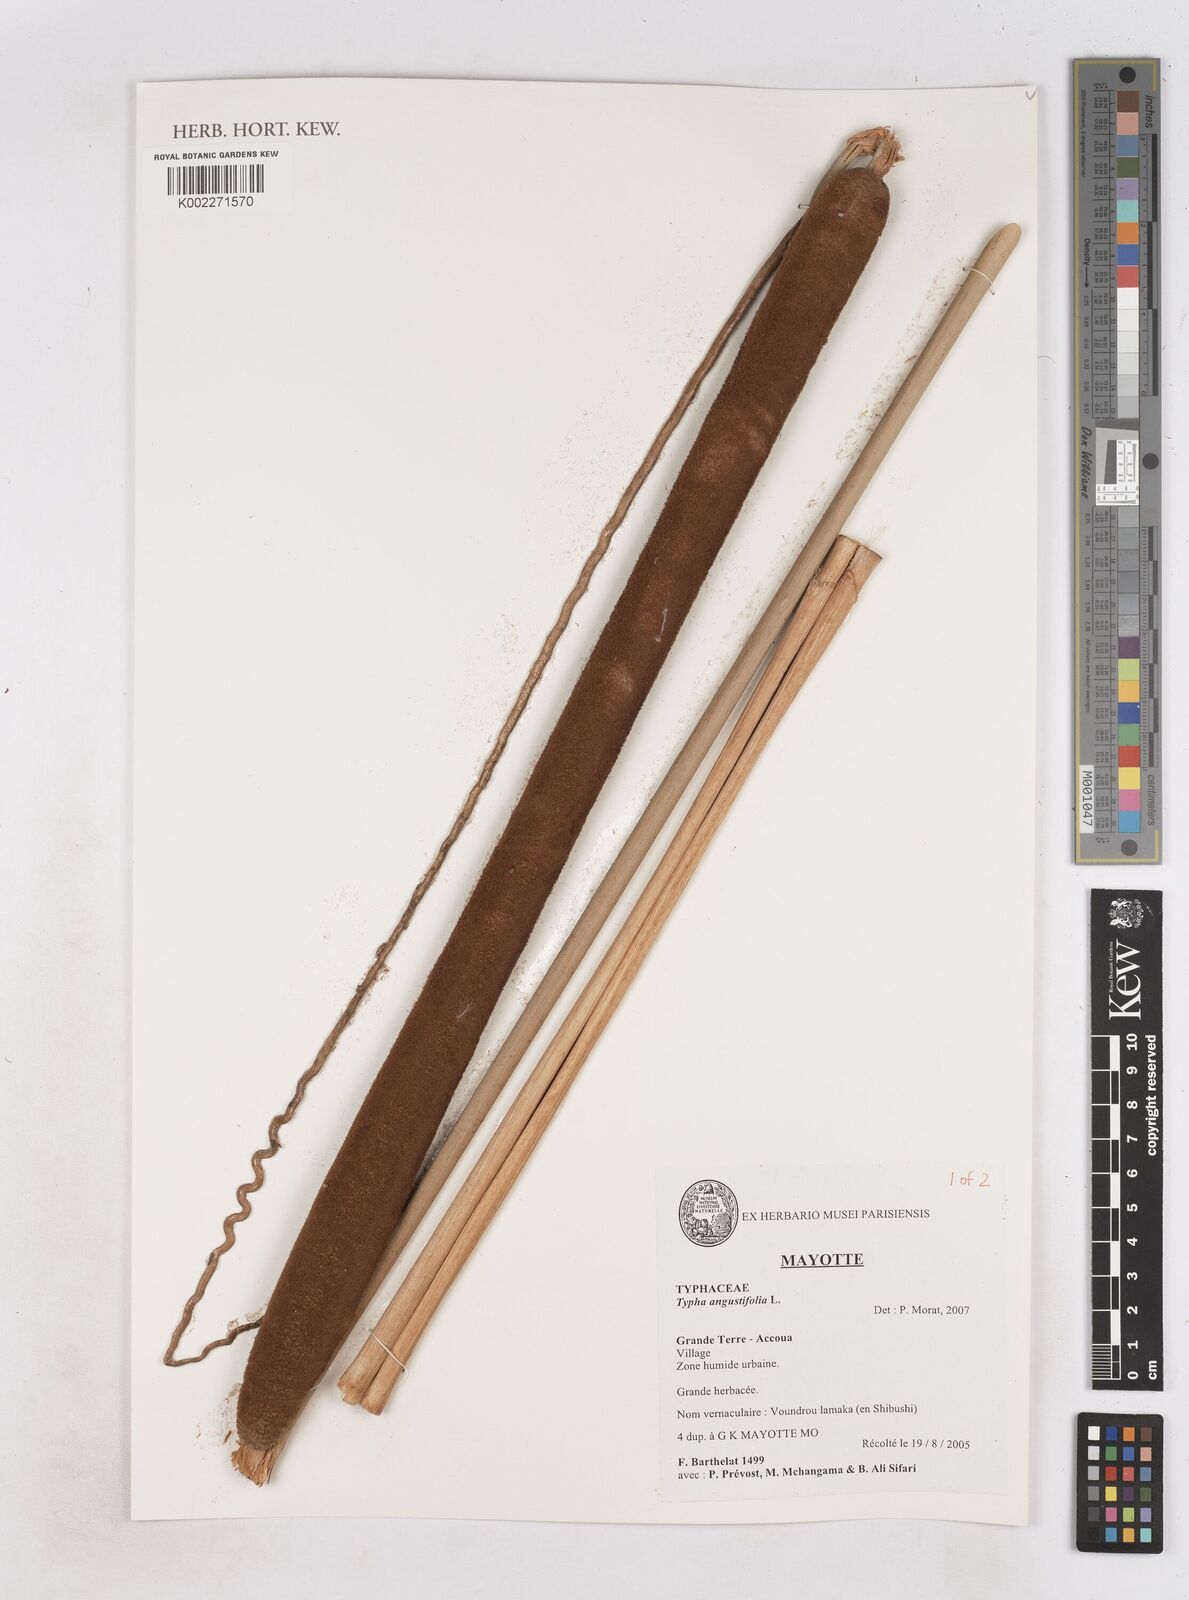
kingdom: Plantae
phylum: Tracheophyta
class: Liliopsida
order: Poales
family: Typhaceae
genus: Typha
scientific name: Typha angustifolia
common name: Lesser bulrush
